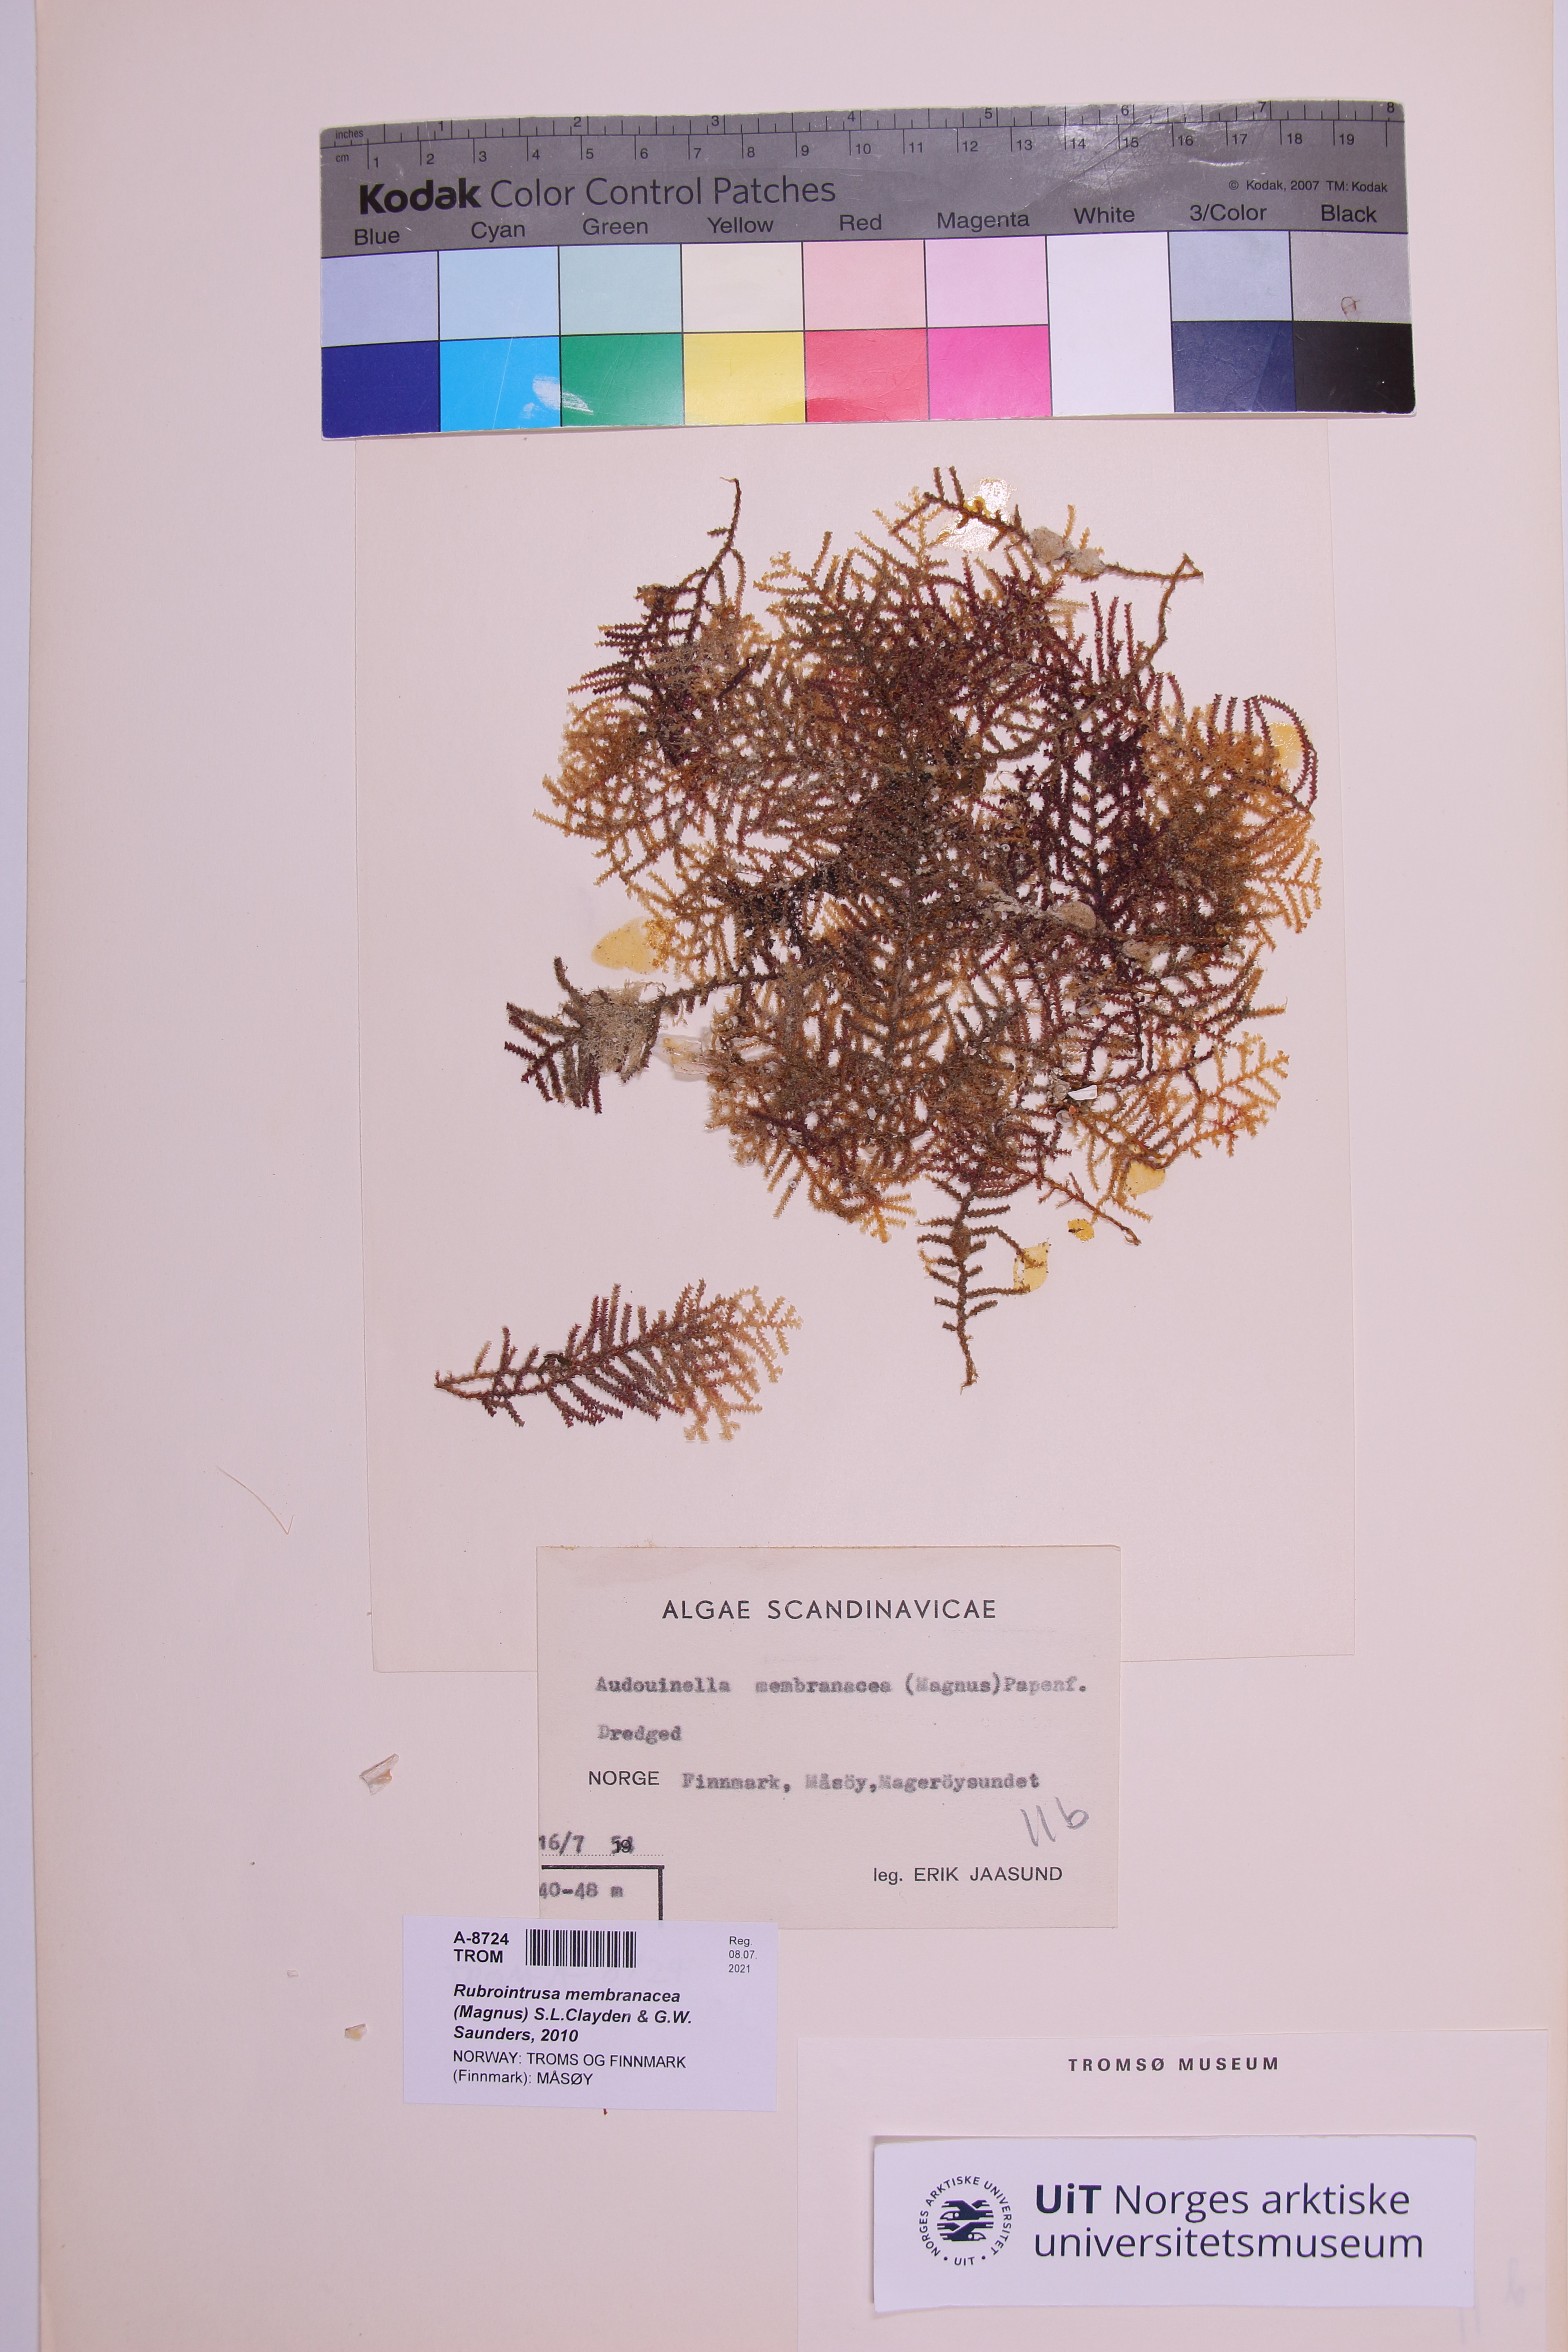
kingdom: Plantae
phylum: Rhodophyta
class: Florideophyceae
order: Palmariales
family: Meiodiscaceae
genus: Rubrointrusa
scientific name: Rubrointrusa membranacea
